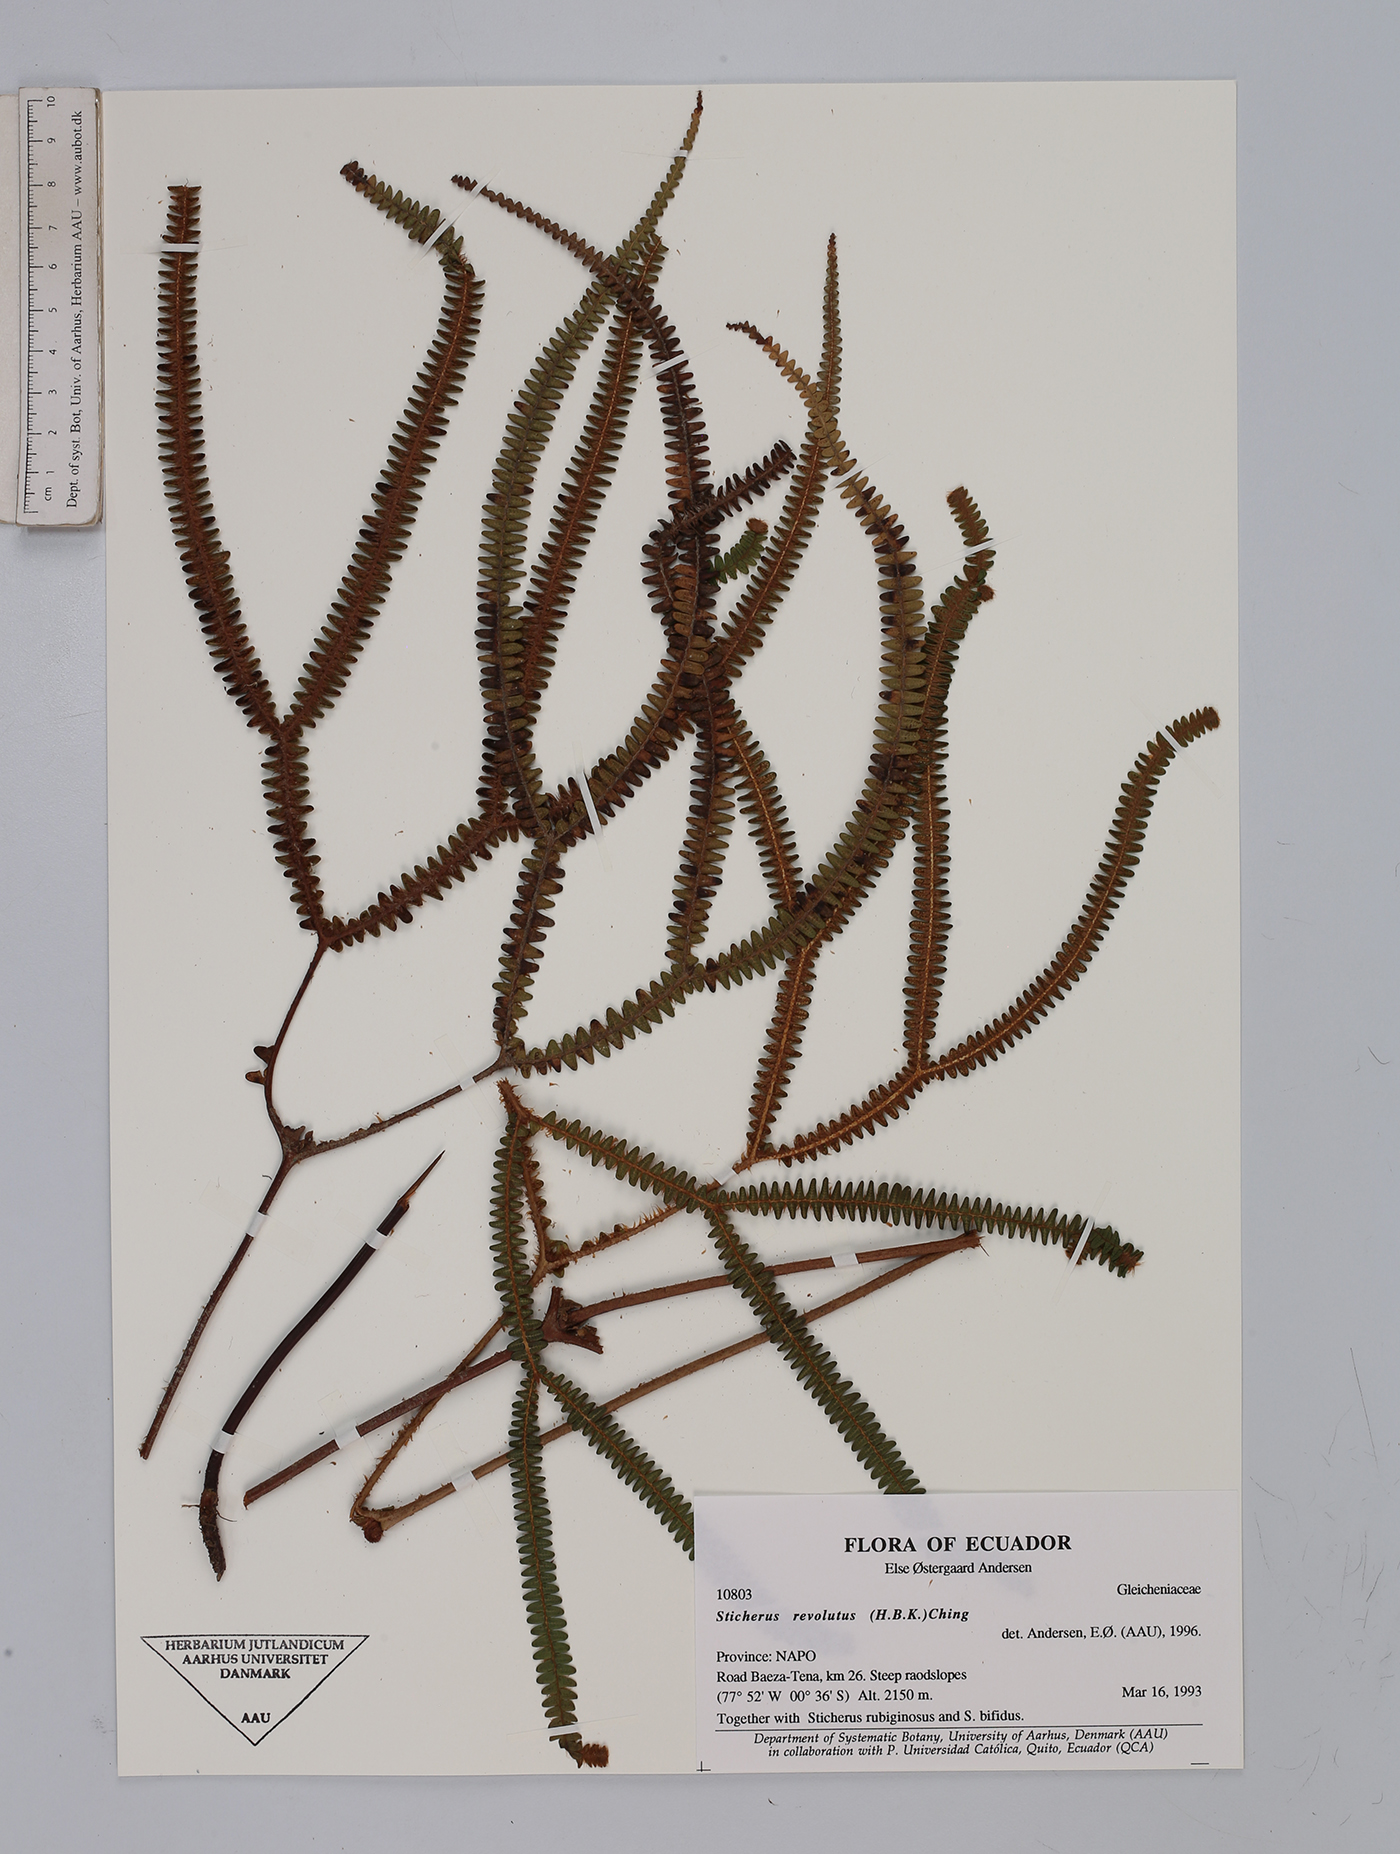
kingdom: Plantae
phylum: Tracheophyta
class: Polypodiopsida
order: Gleicheniales
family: Gleicheniaceae
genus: Sticherus
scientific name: Sticherus revolutus
